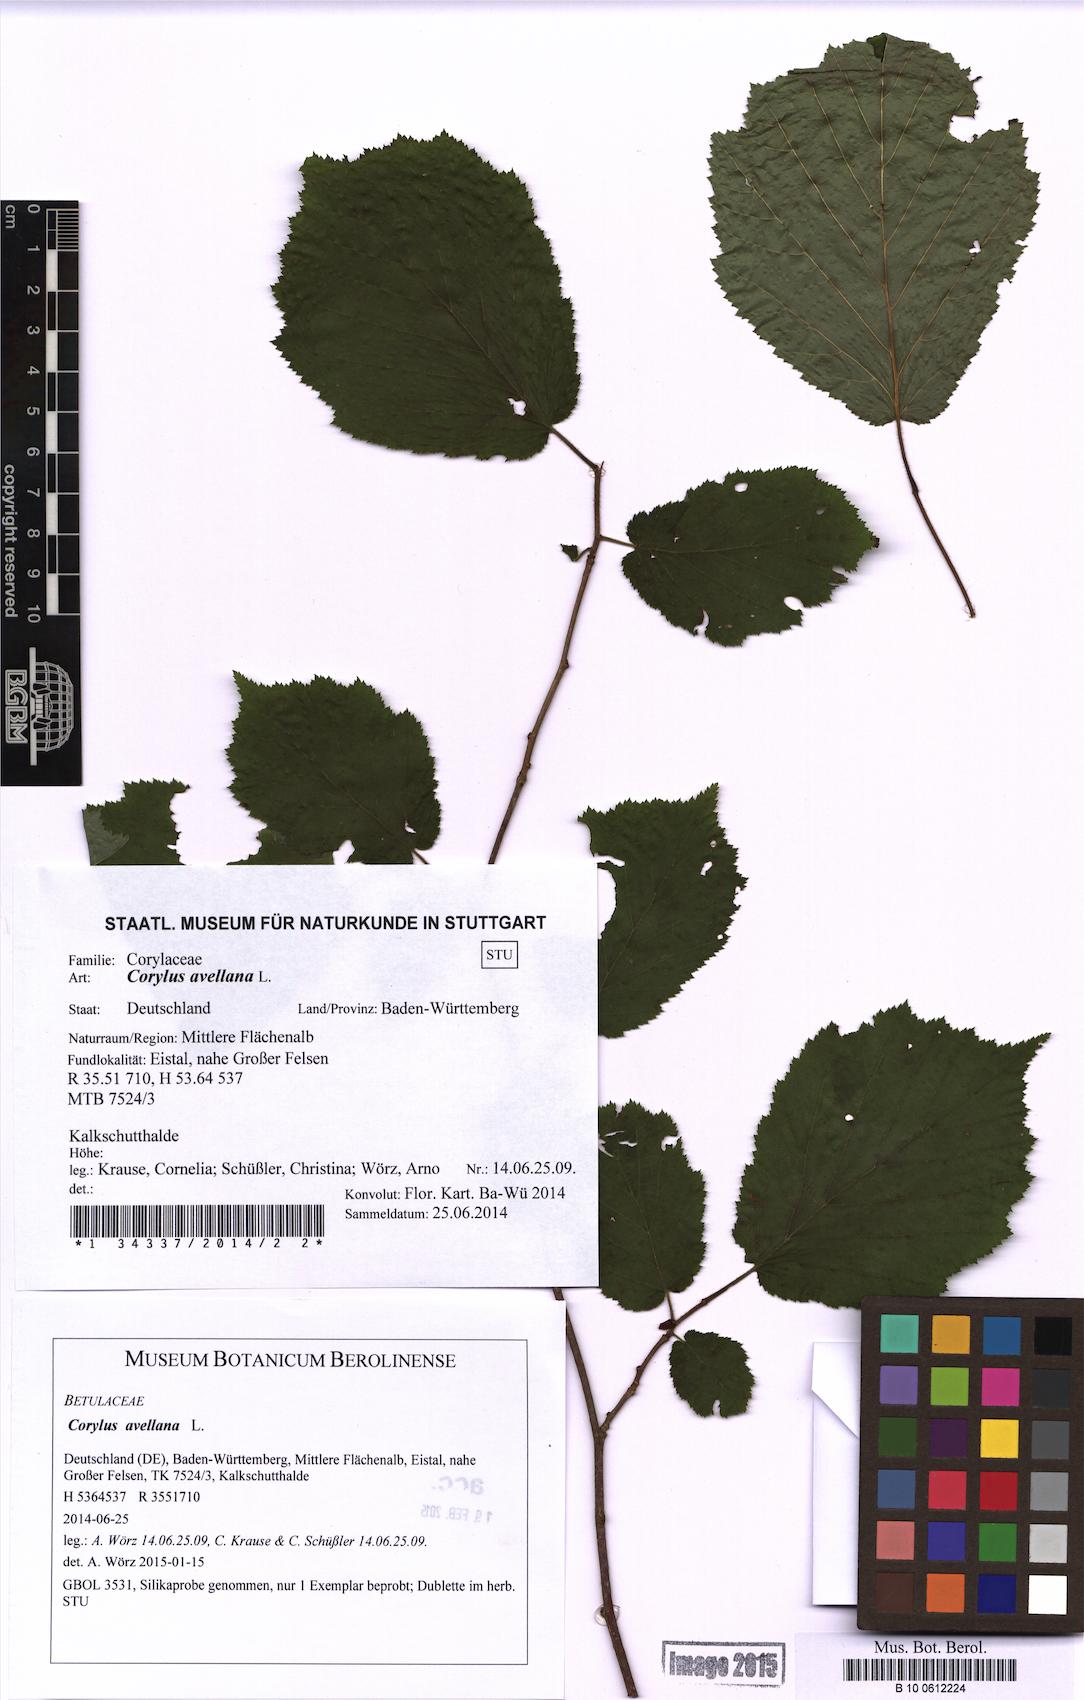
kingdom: Plantae
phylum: Tracheophyta
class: Magnoliopsida
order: Fagales
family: Betulaceae
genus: Corylus
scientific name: Corylus avellana
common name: European hazel
